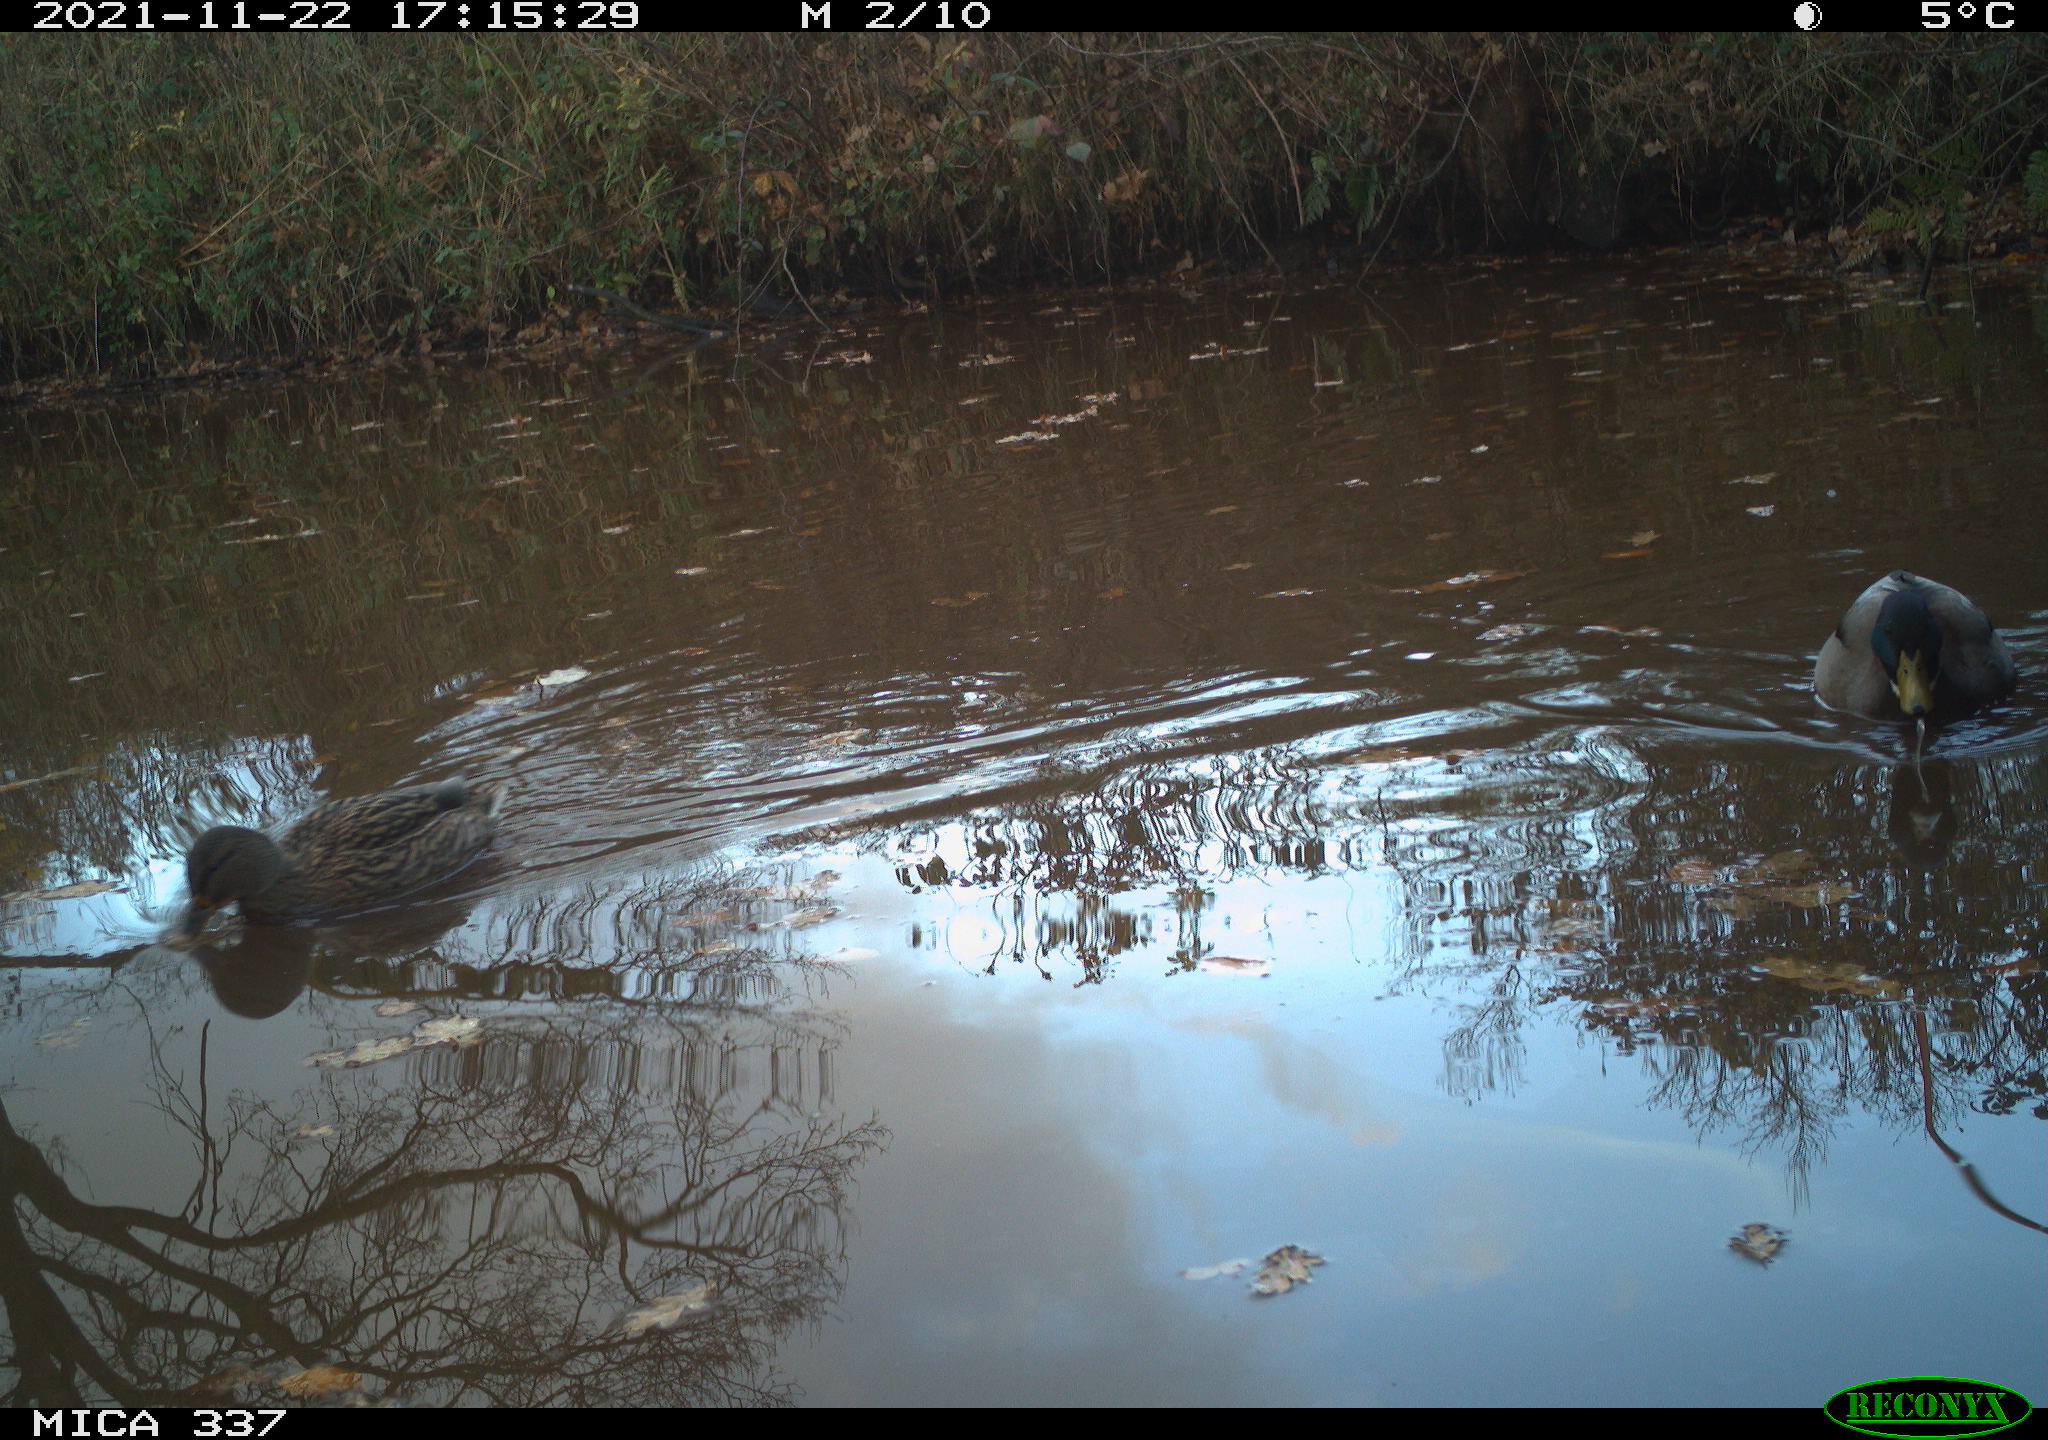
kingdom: Animalia
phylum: Chordata
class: Aves
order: Anseriformes
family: Anatidae
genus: Anas
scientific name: Anas platyrhynchos
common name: Mallard
